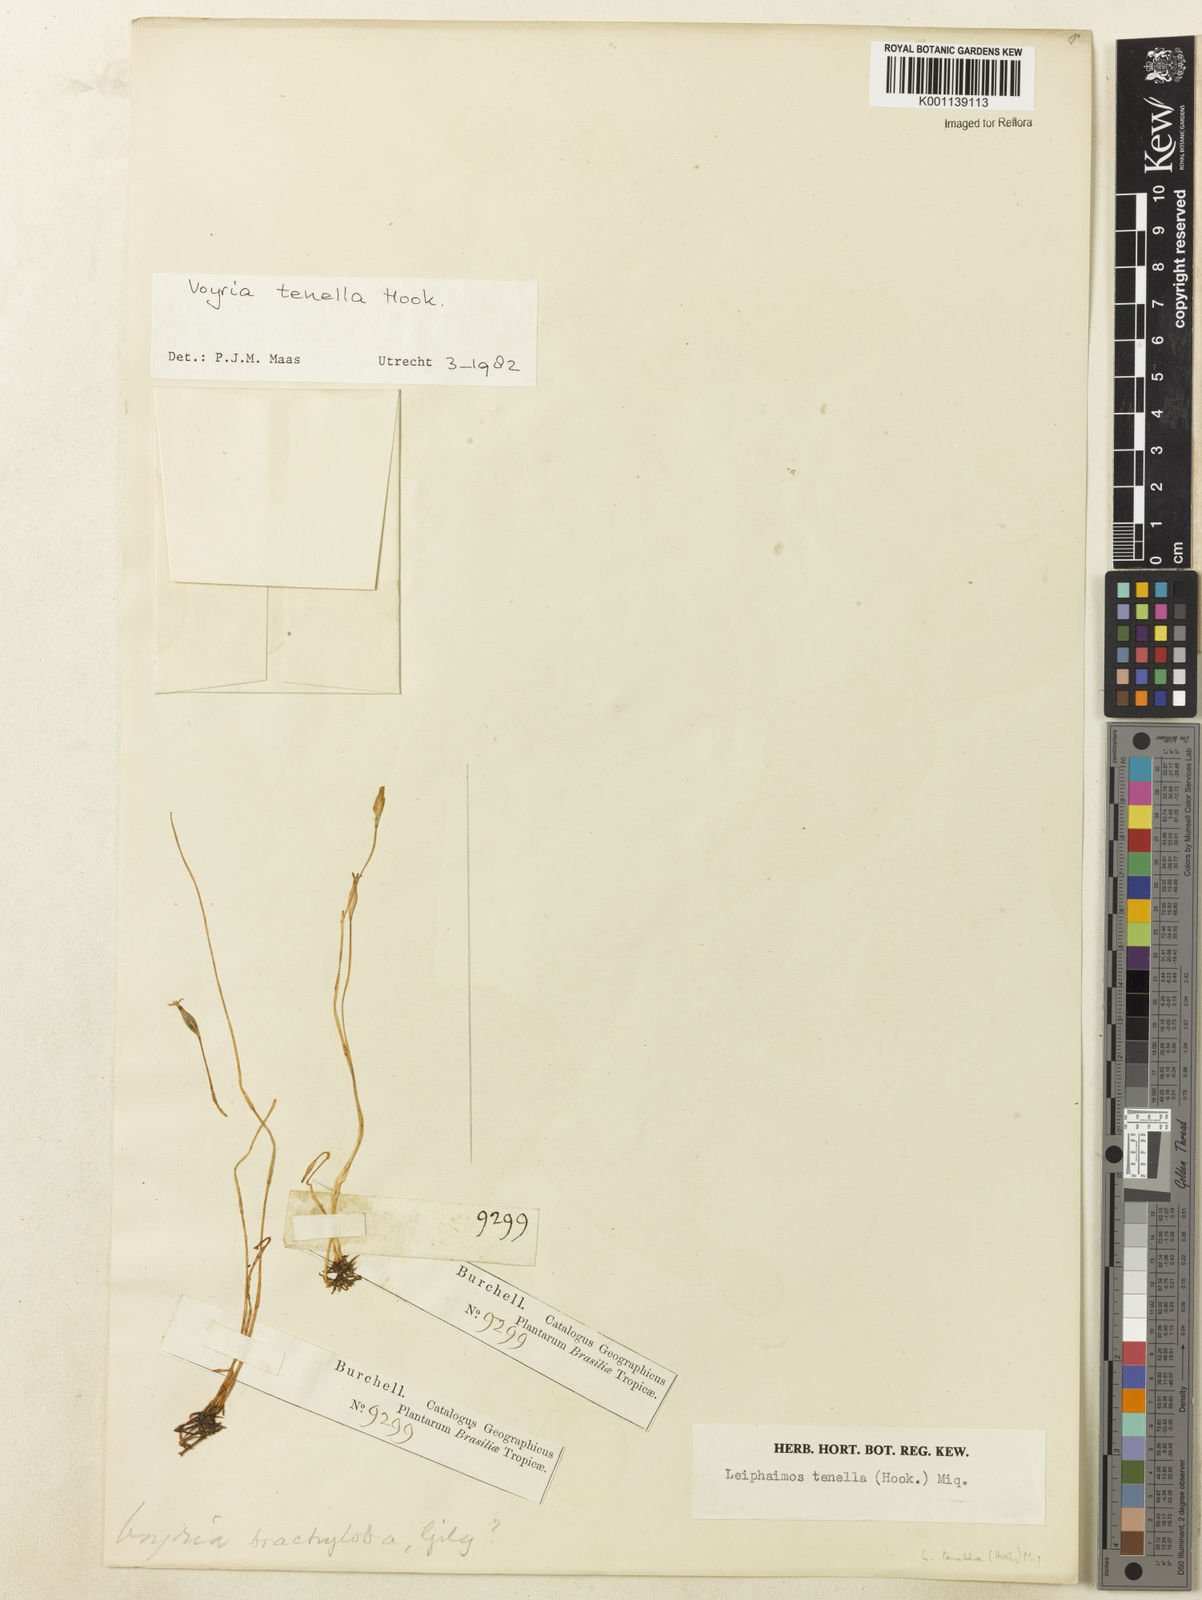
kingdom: Plantae
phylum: Tracheophyta
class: Magnoliopsida
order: Gentianales
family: Gentianaceae
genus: Voyria
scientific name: Voyria tenella
